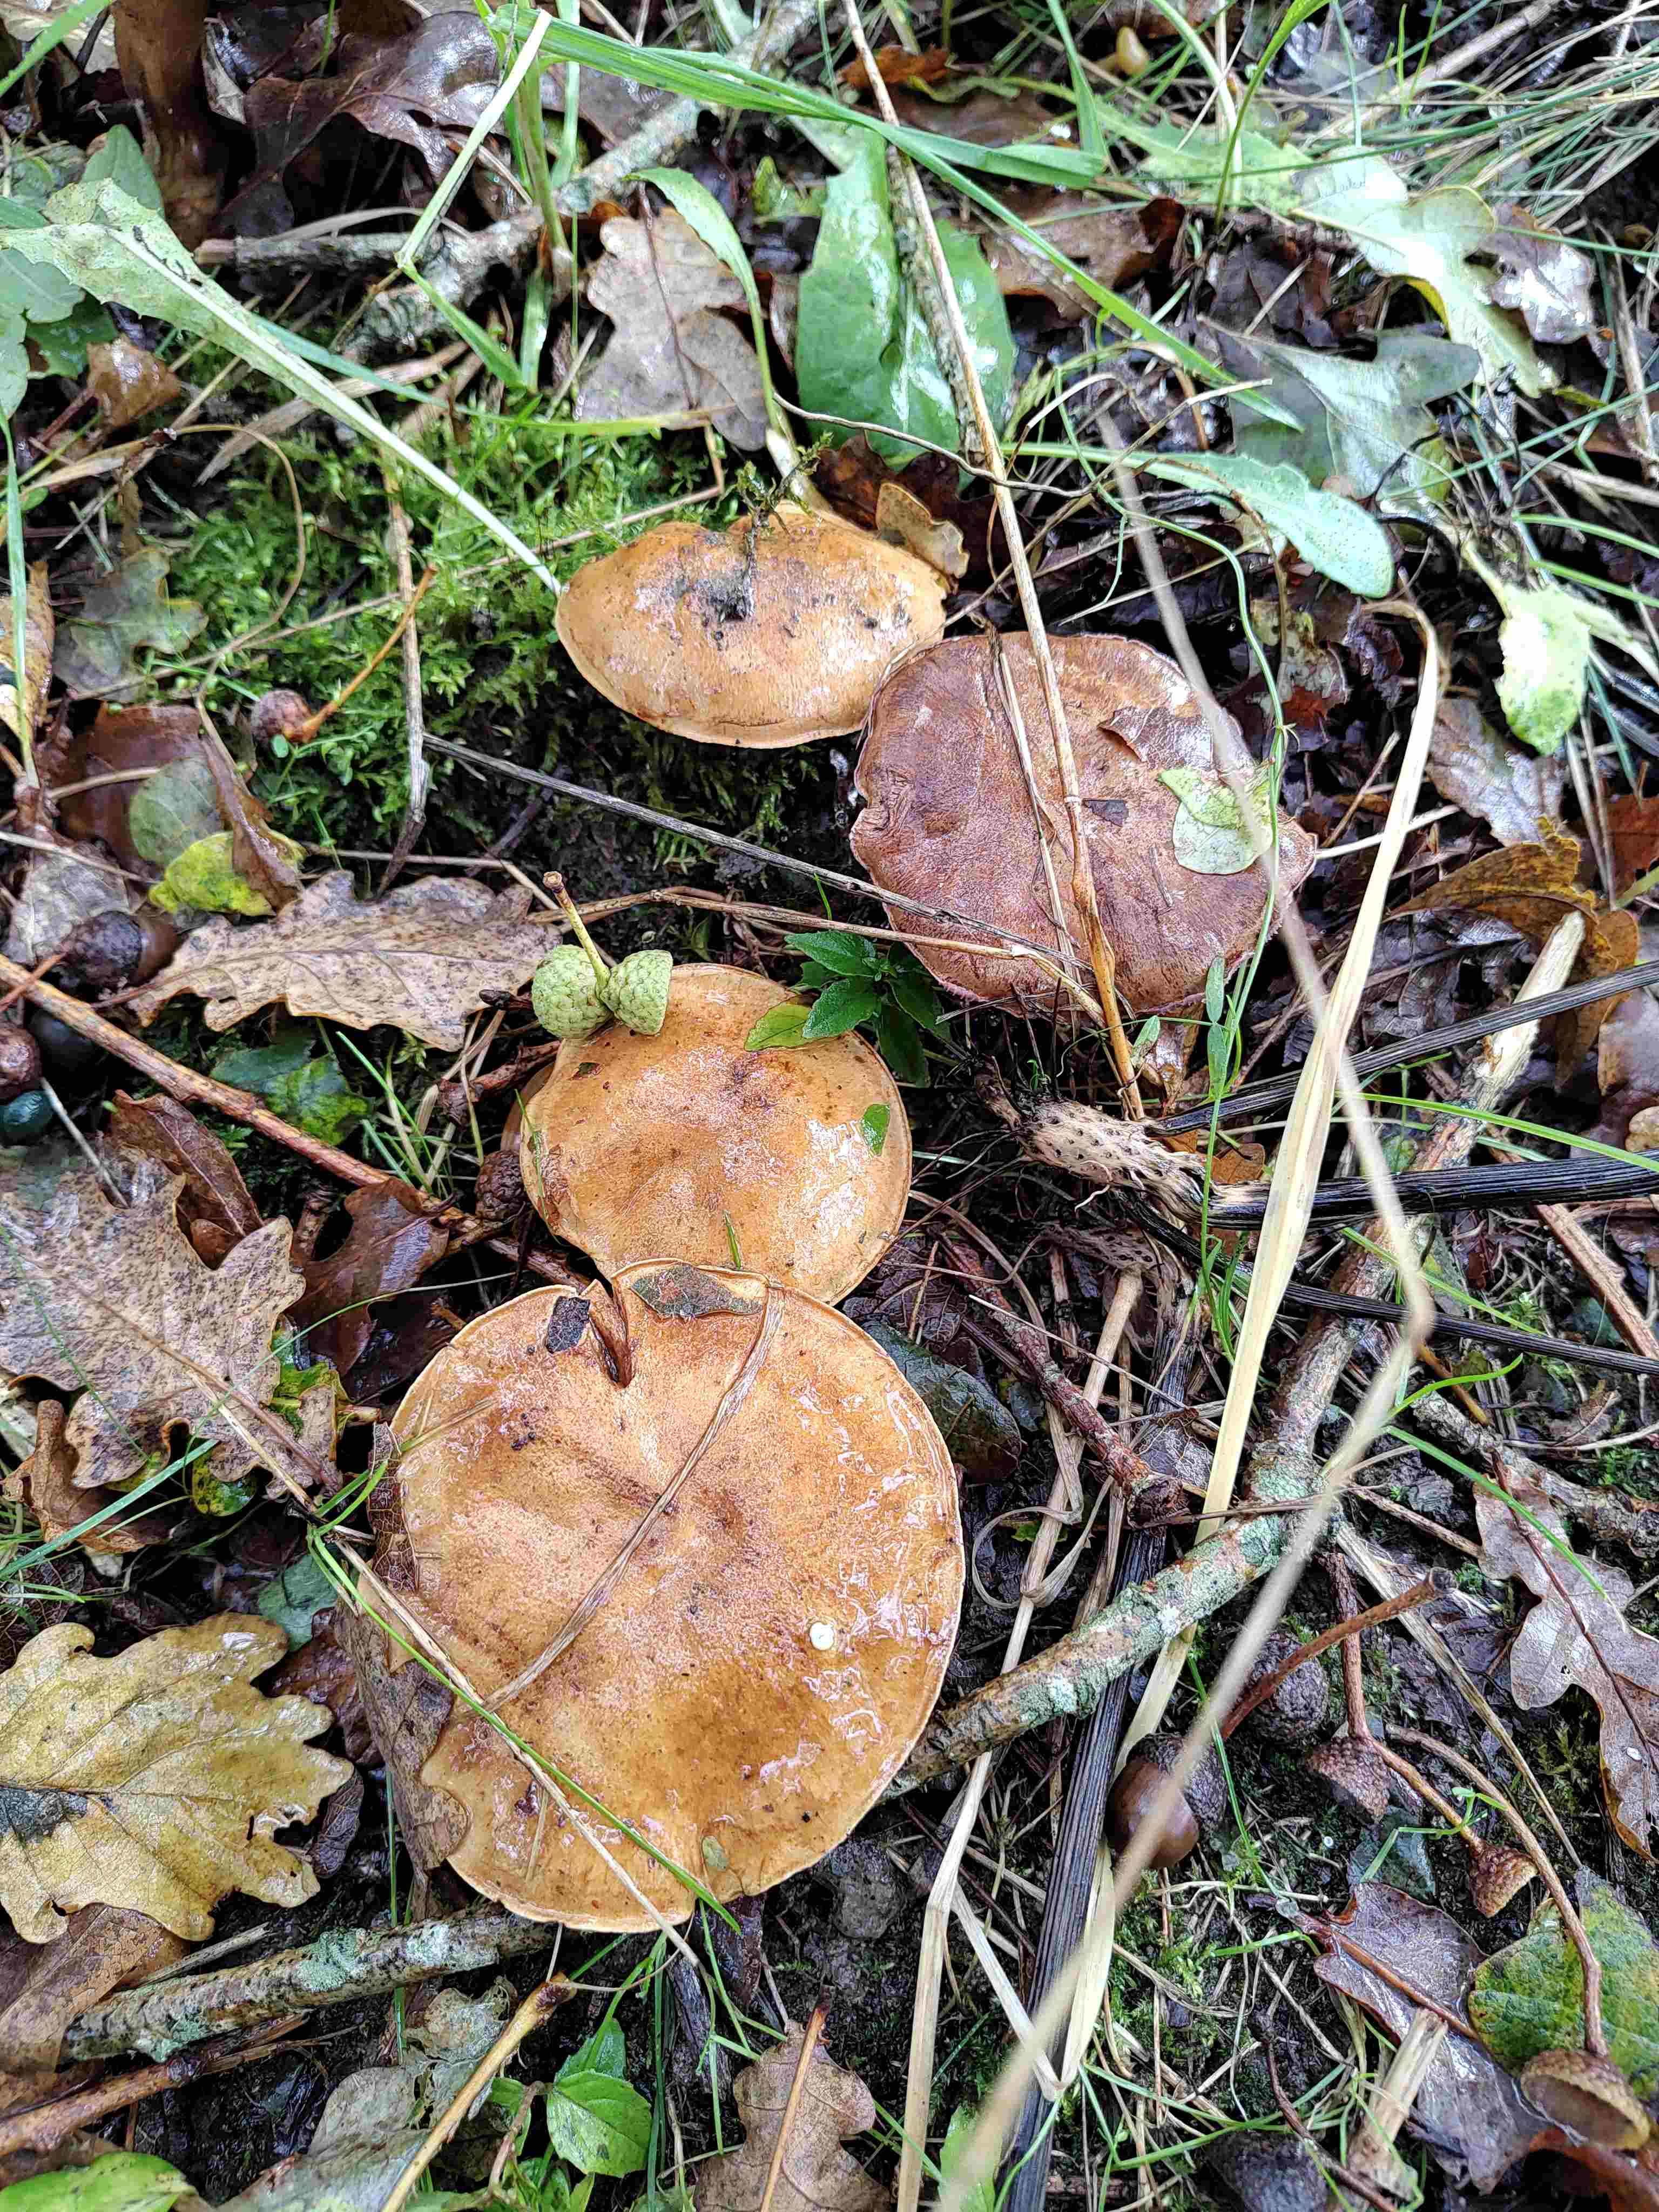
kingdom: Fungi
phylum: Basidiomycota
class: Agaricomycetes
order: Agaricales
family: Cortinariaceae
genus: Phlegmacium
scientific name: Phlegmacium
